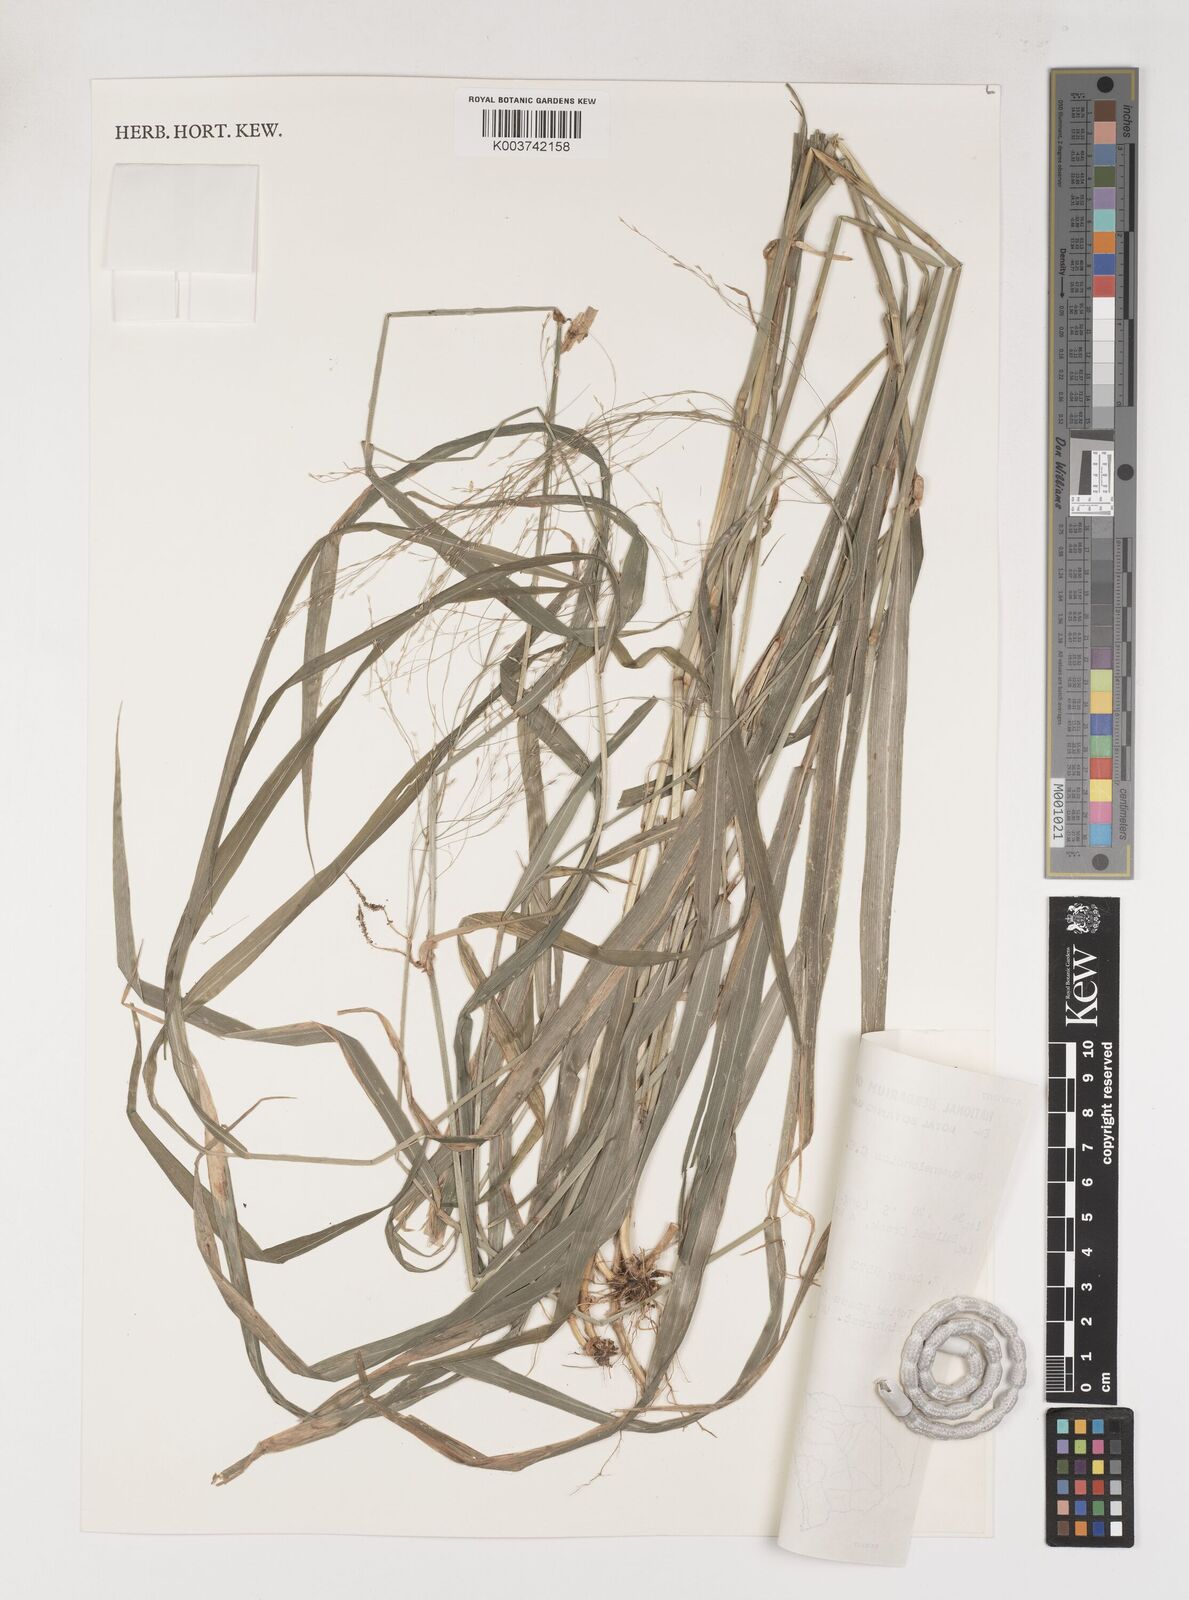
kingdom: Plantae
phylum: Tracheophyta
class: Liliopsida
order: Poales
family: Poaceae
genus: Sylvipoa
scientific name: Sylvipoa queenslandica
